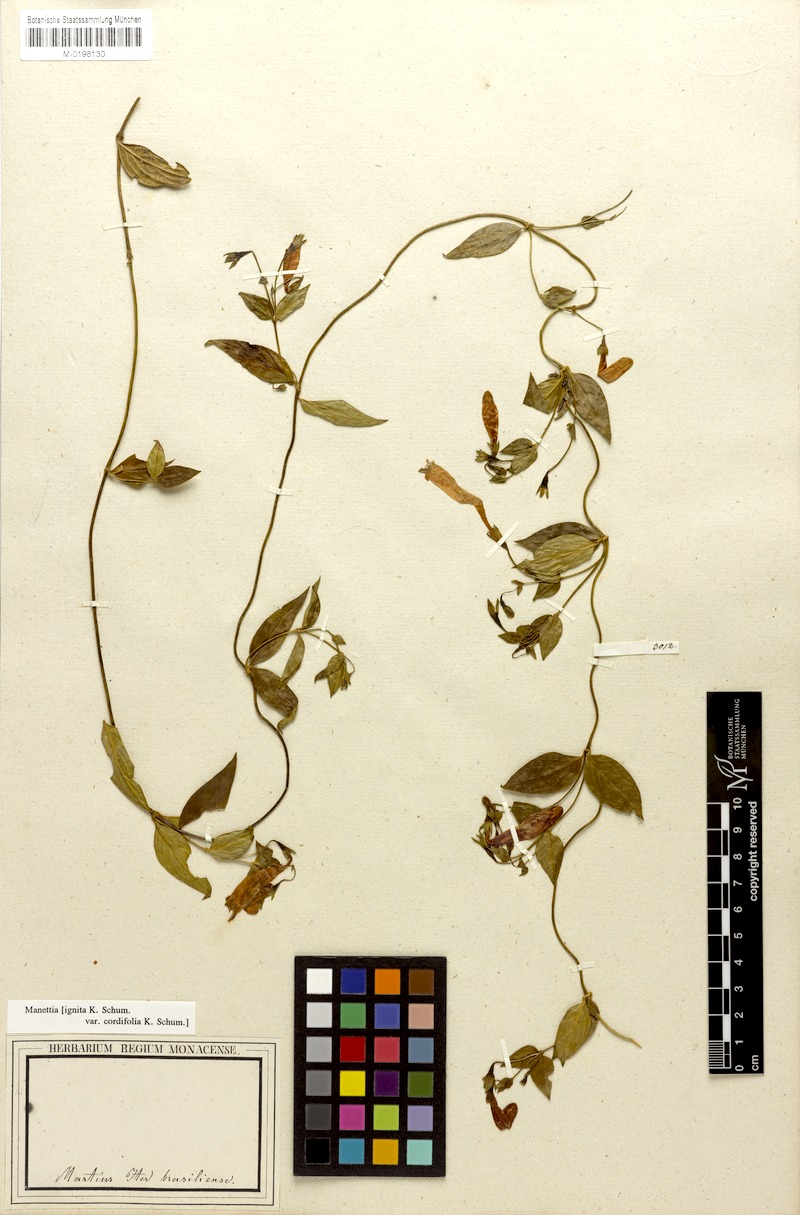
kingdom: Plantae
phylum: Tracheophyta
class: Magnoliopsida
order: Gentianales
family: Rubiaceae
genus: Manettia
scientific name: Manettia cordifolia
